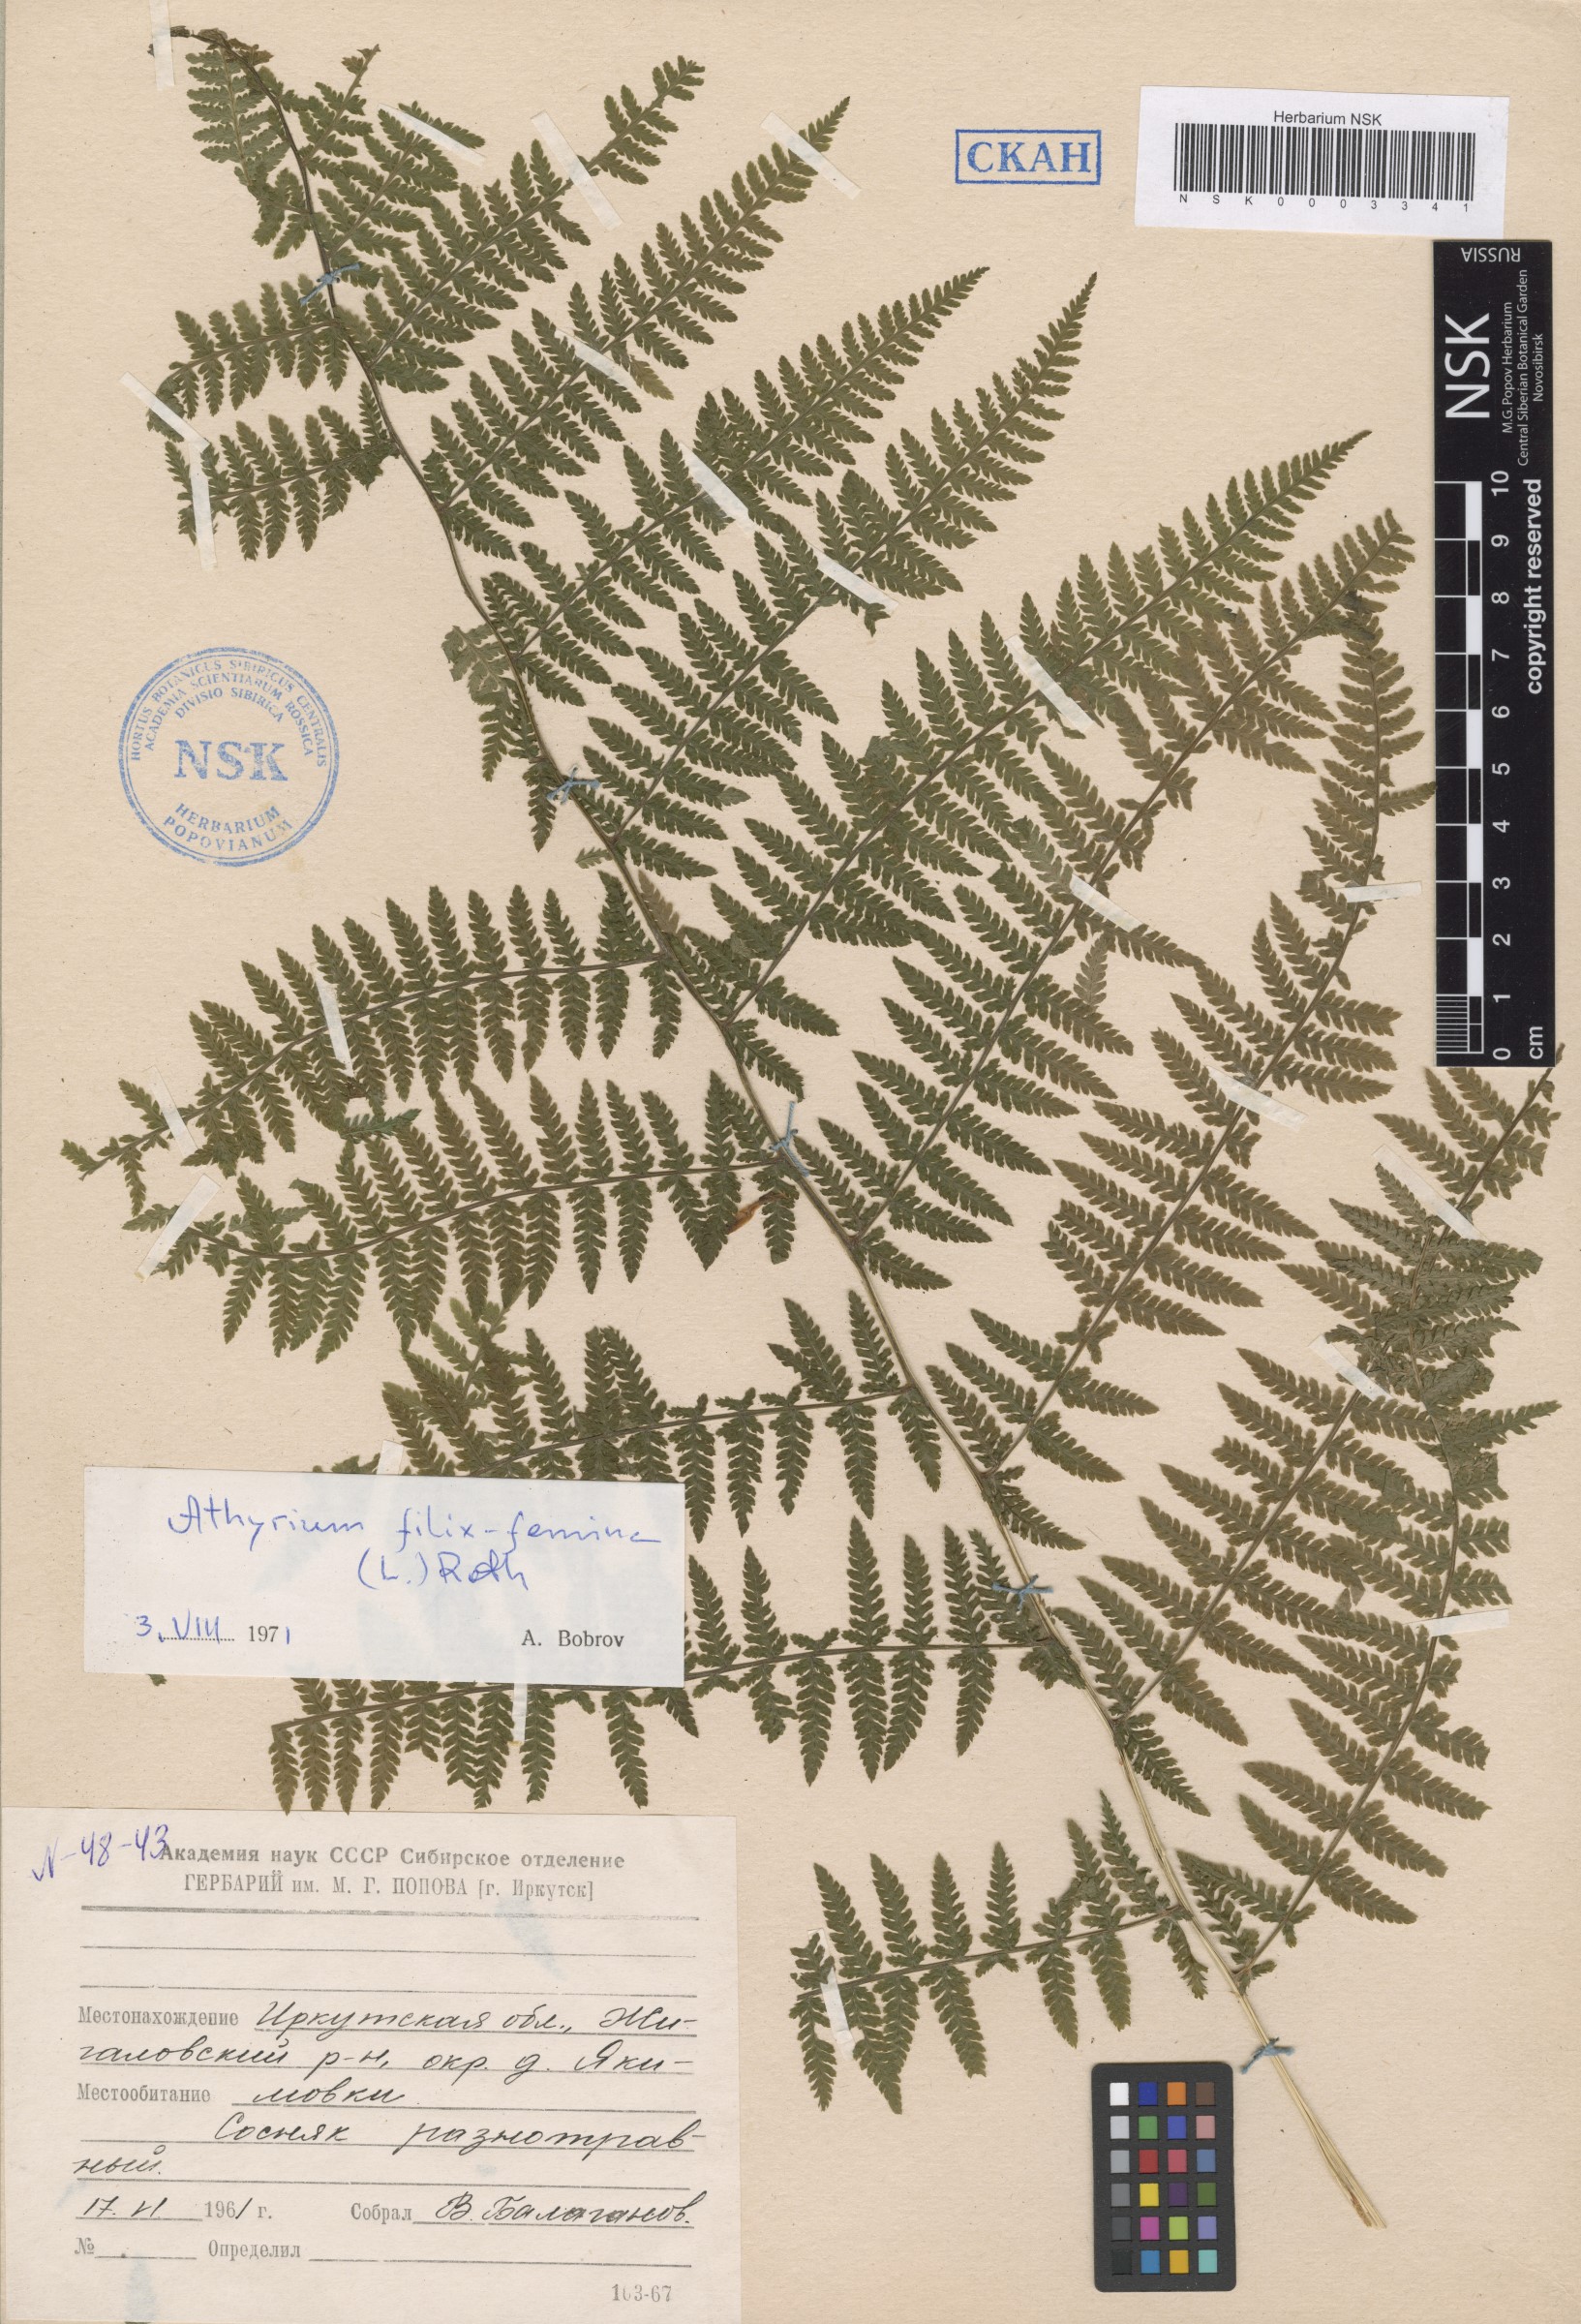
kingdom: Plantae
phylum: Tracheophyta
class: Polypodiopsida
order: Polypodiales
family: Athyriaceae
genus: Athyrium
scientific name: Athyrium filix-femina
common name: Lady fern
